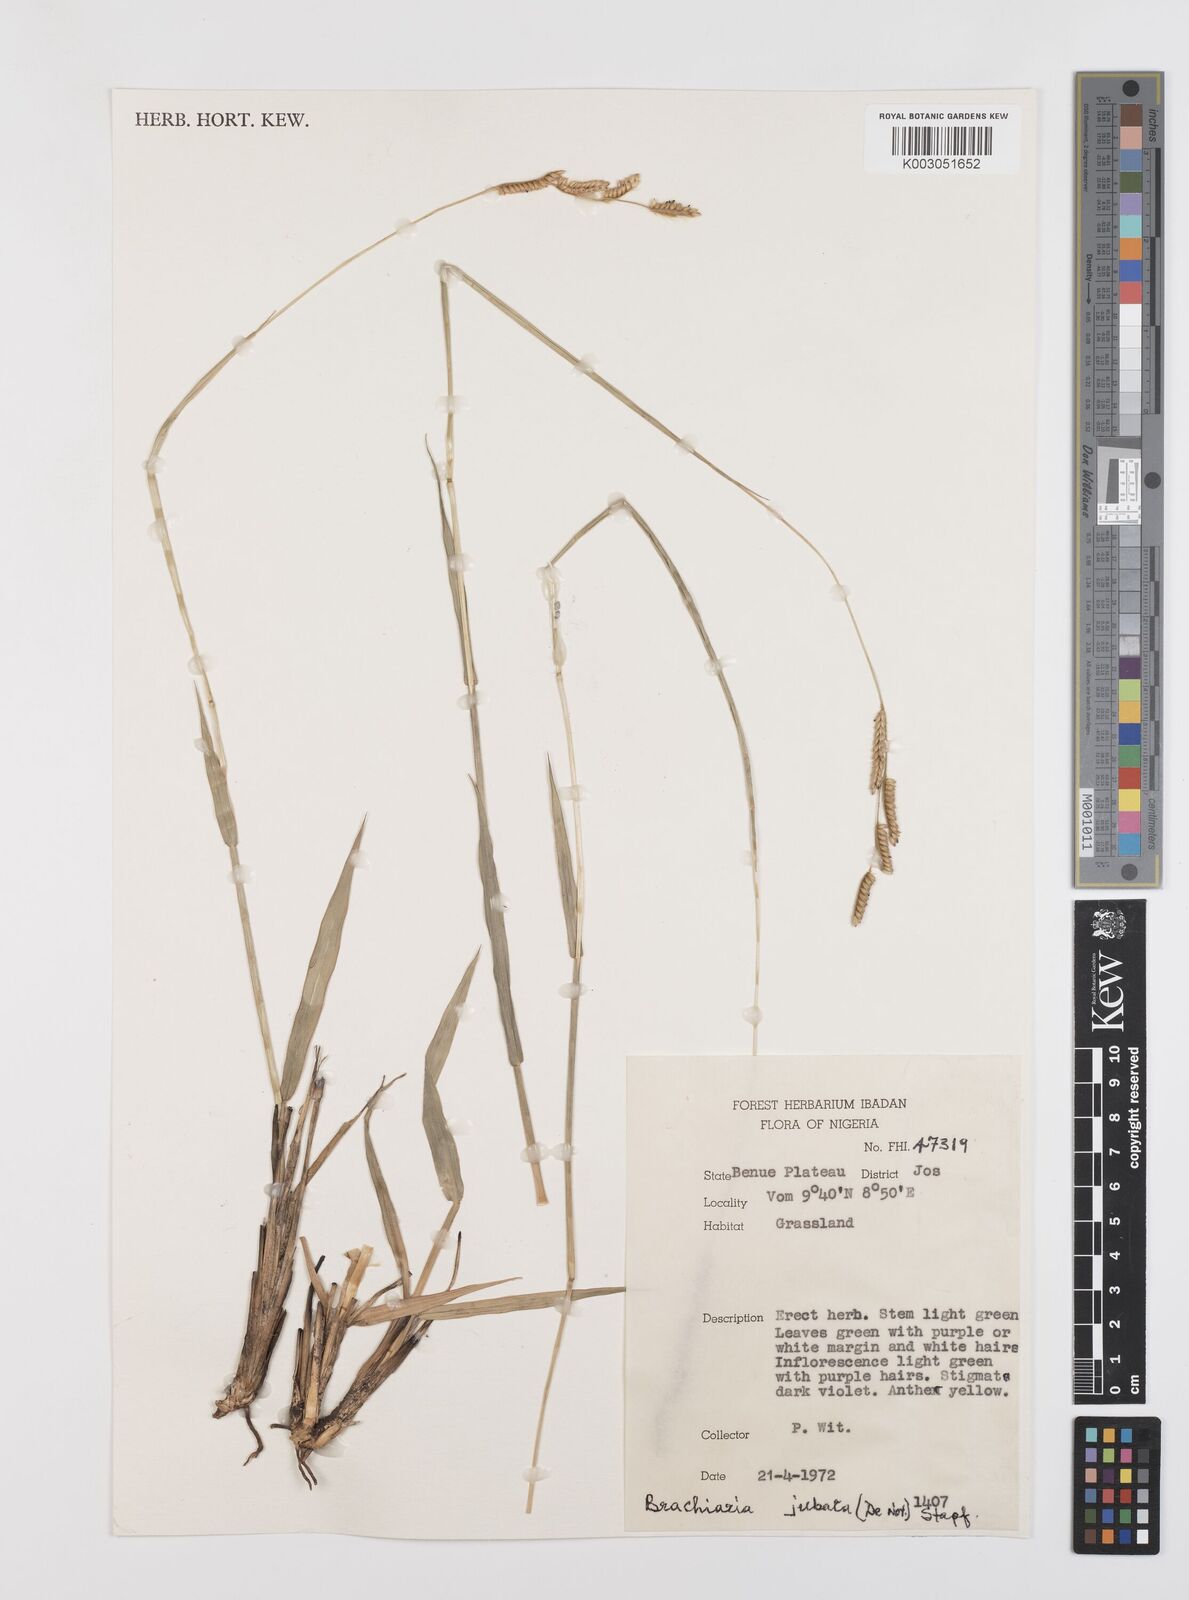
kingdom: Plantae
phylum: Tracheophyta
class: Liliopsida
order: Poales
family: Poaceae
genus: Urochloa
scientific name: Urochloa jubata
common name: Buffalograss
